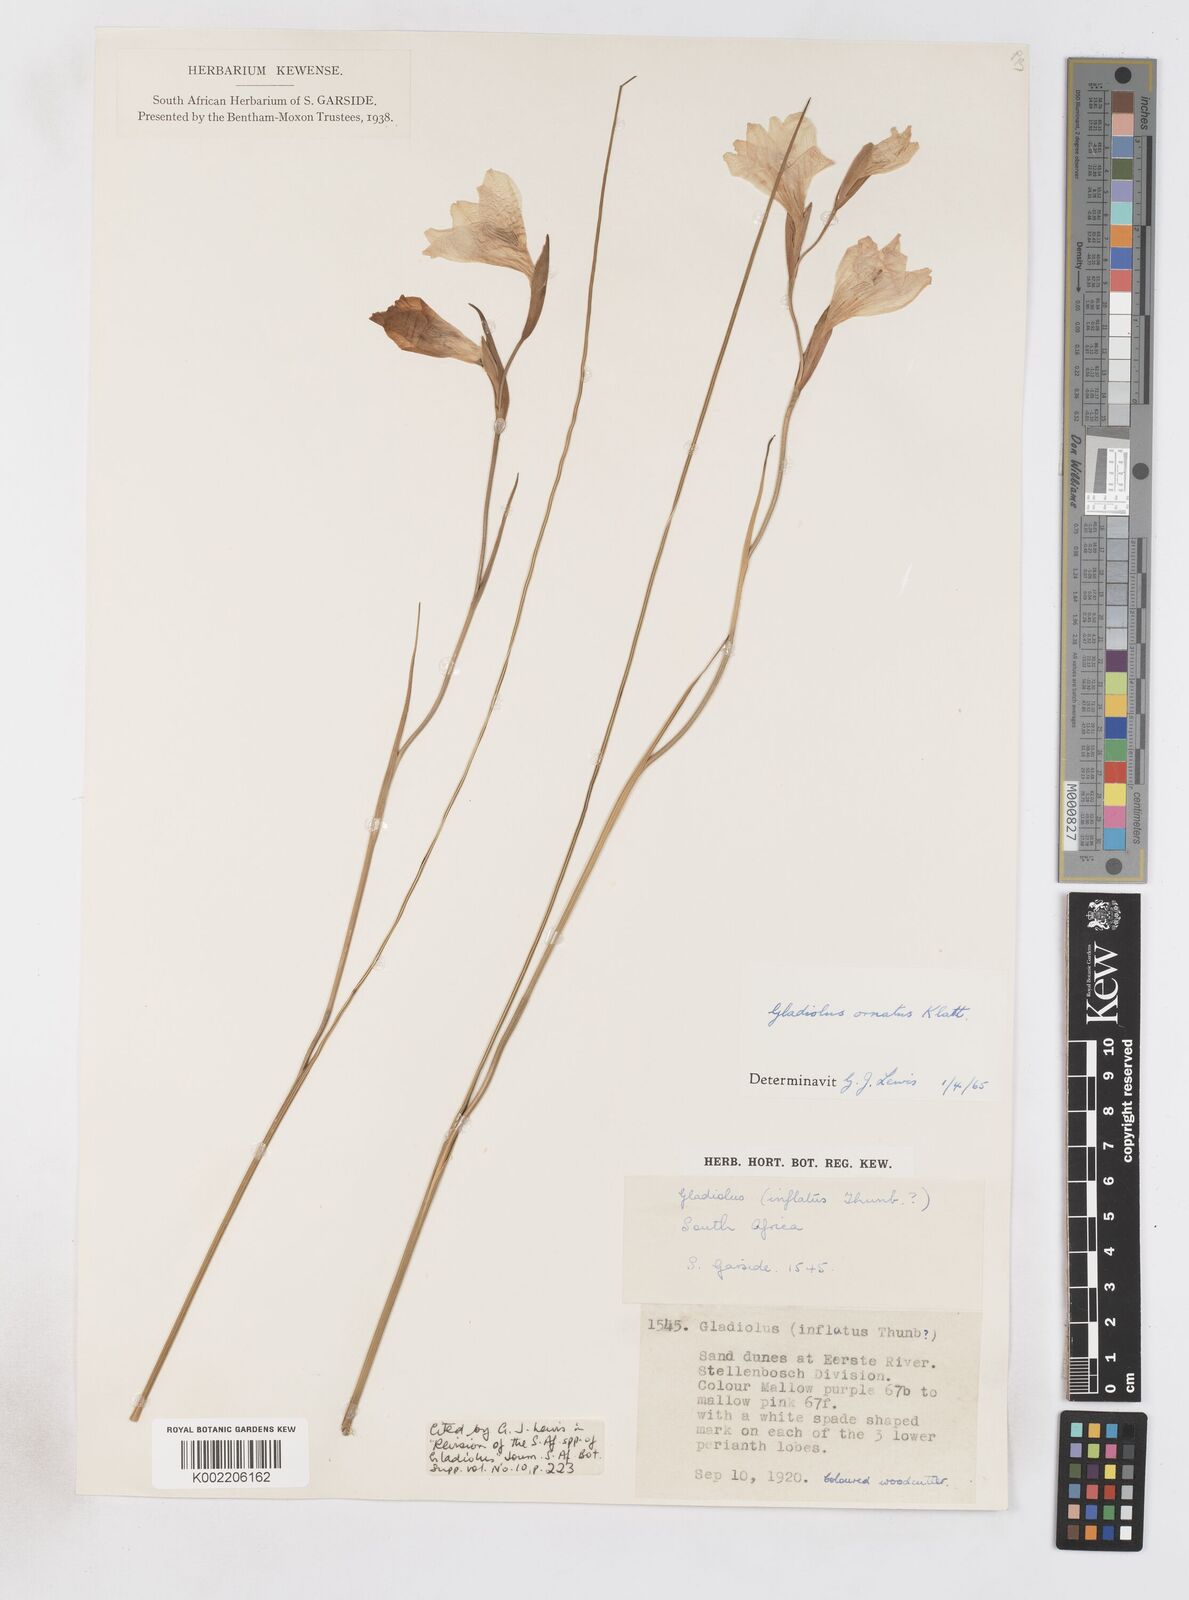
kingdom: Plantae
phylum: Tracheophyta
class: Liliopsida
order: Asparagales
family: Iridaceae
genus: Gladiolus
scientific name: Gladiolus ornatus
